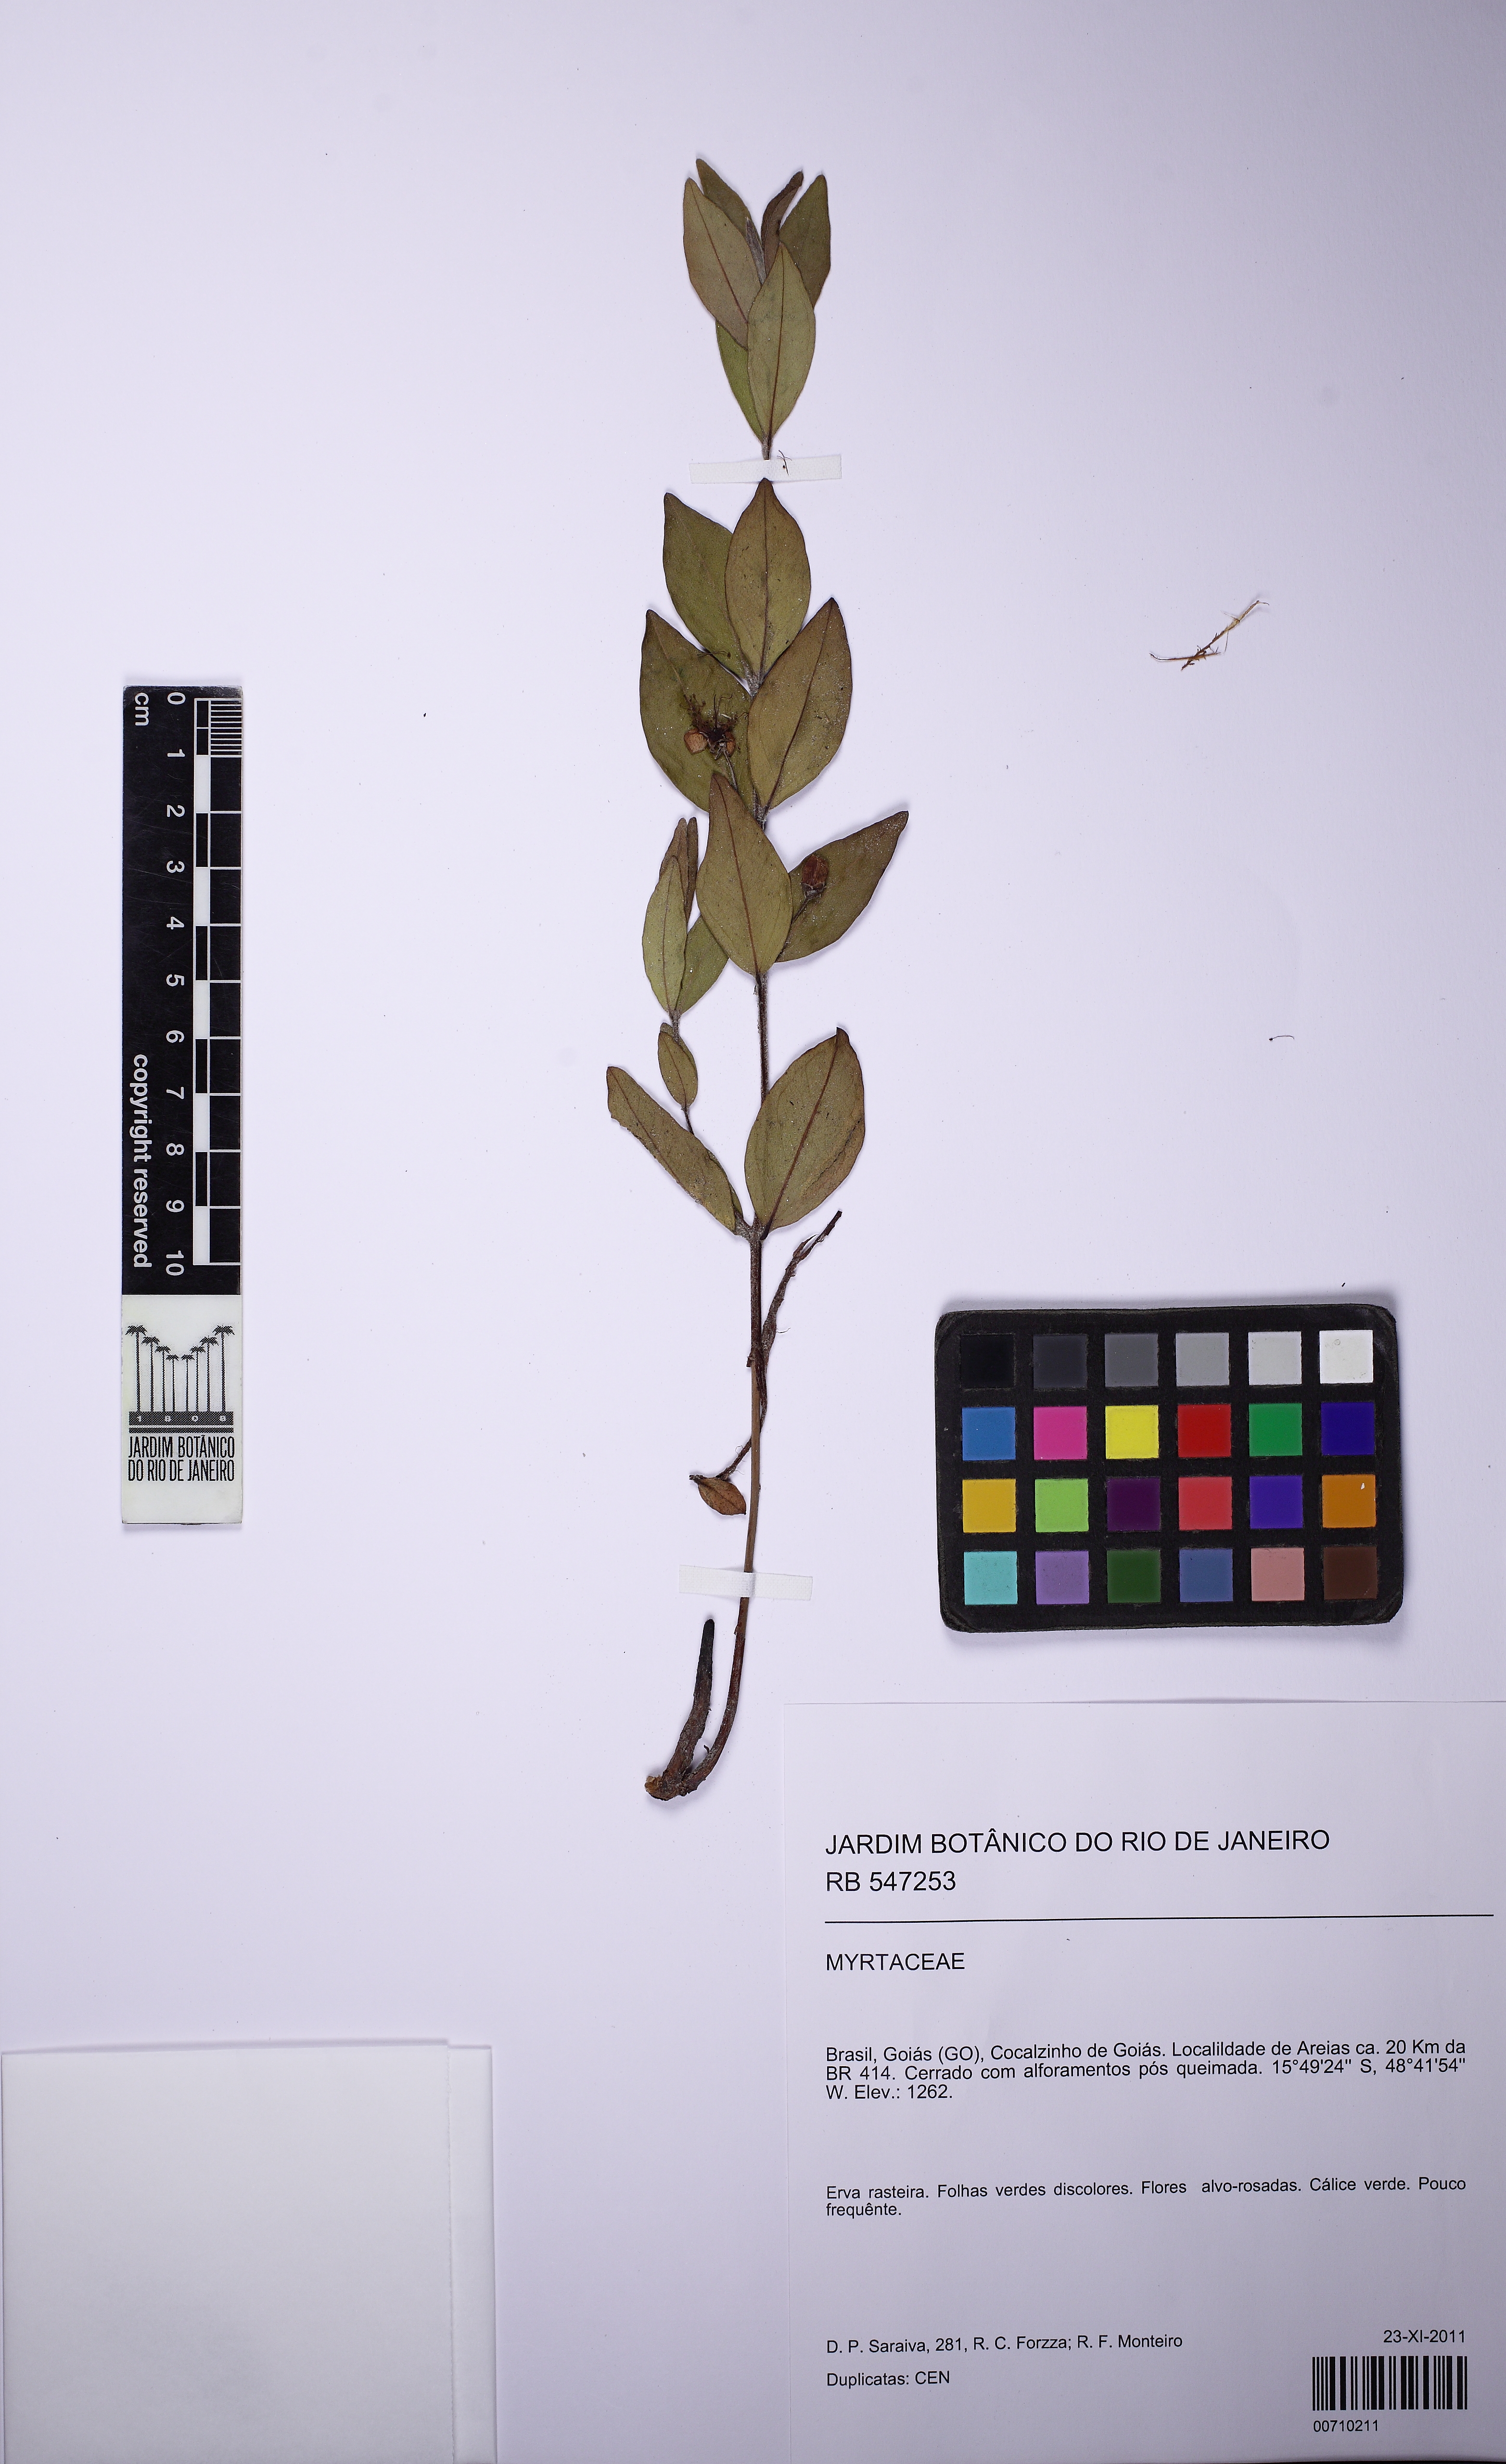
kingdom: Plantae
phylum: Tracheophyta
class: Magnoliopsida
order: Myrtales
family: Myrtaceae
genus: Eugenia
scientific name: Eugenia cristaensis
